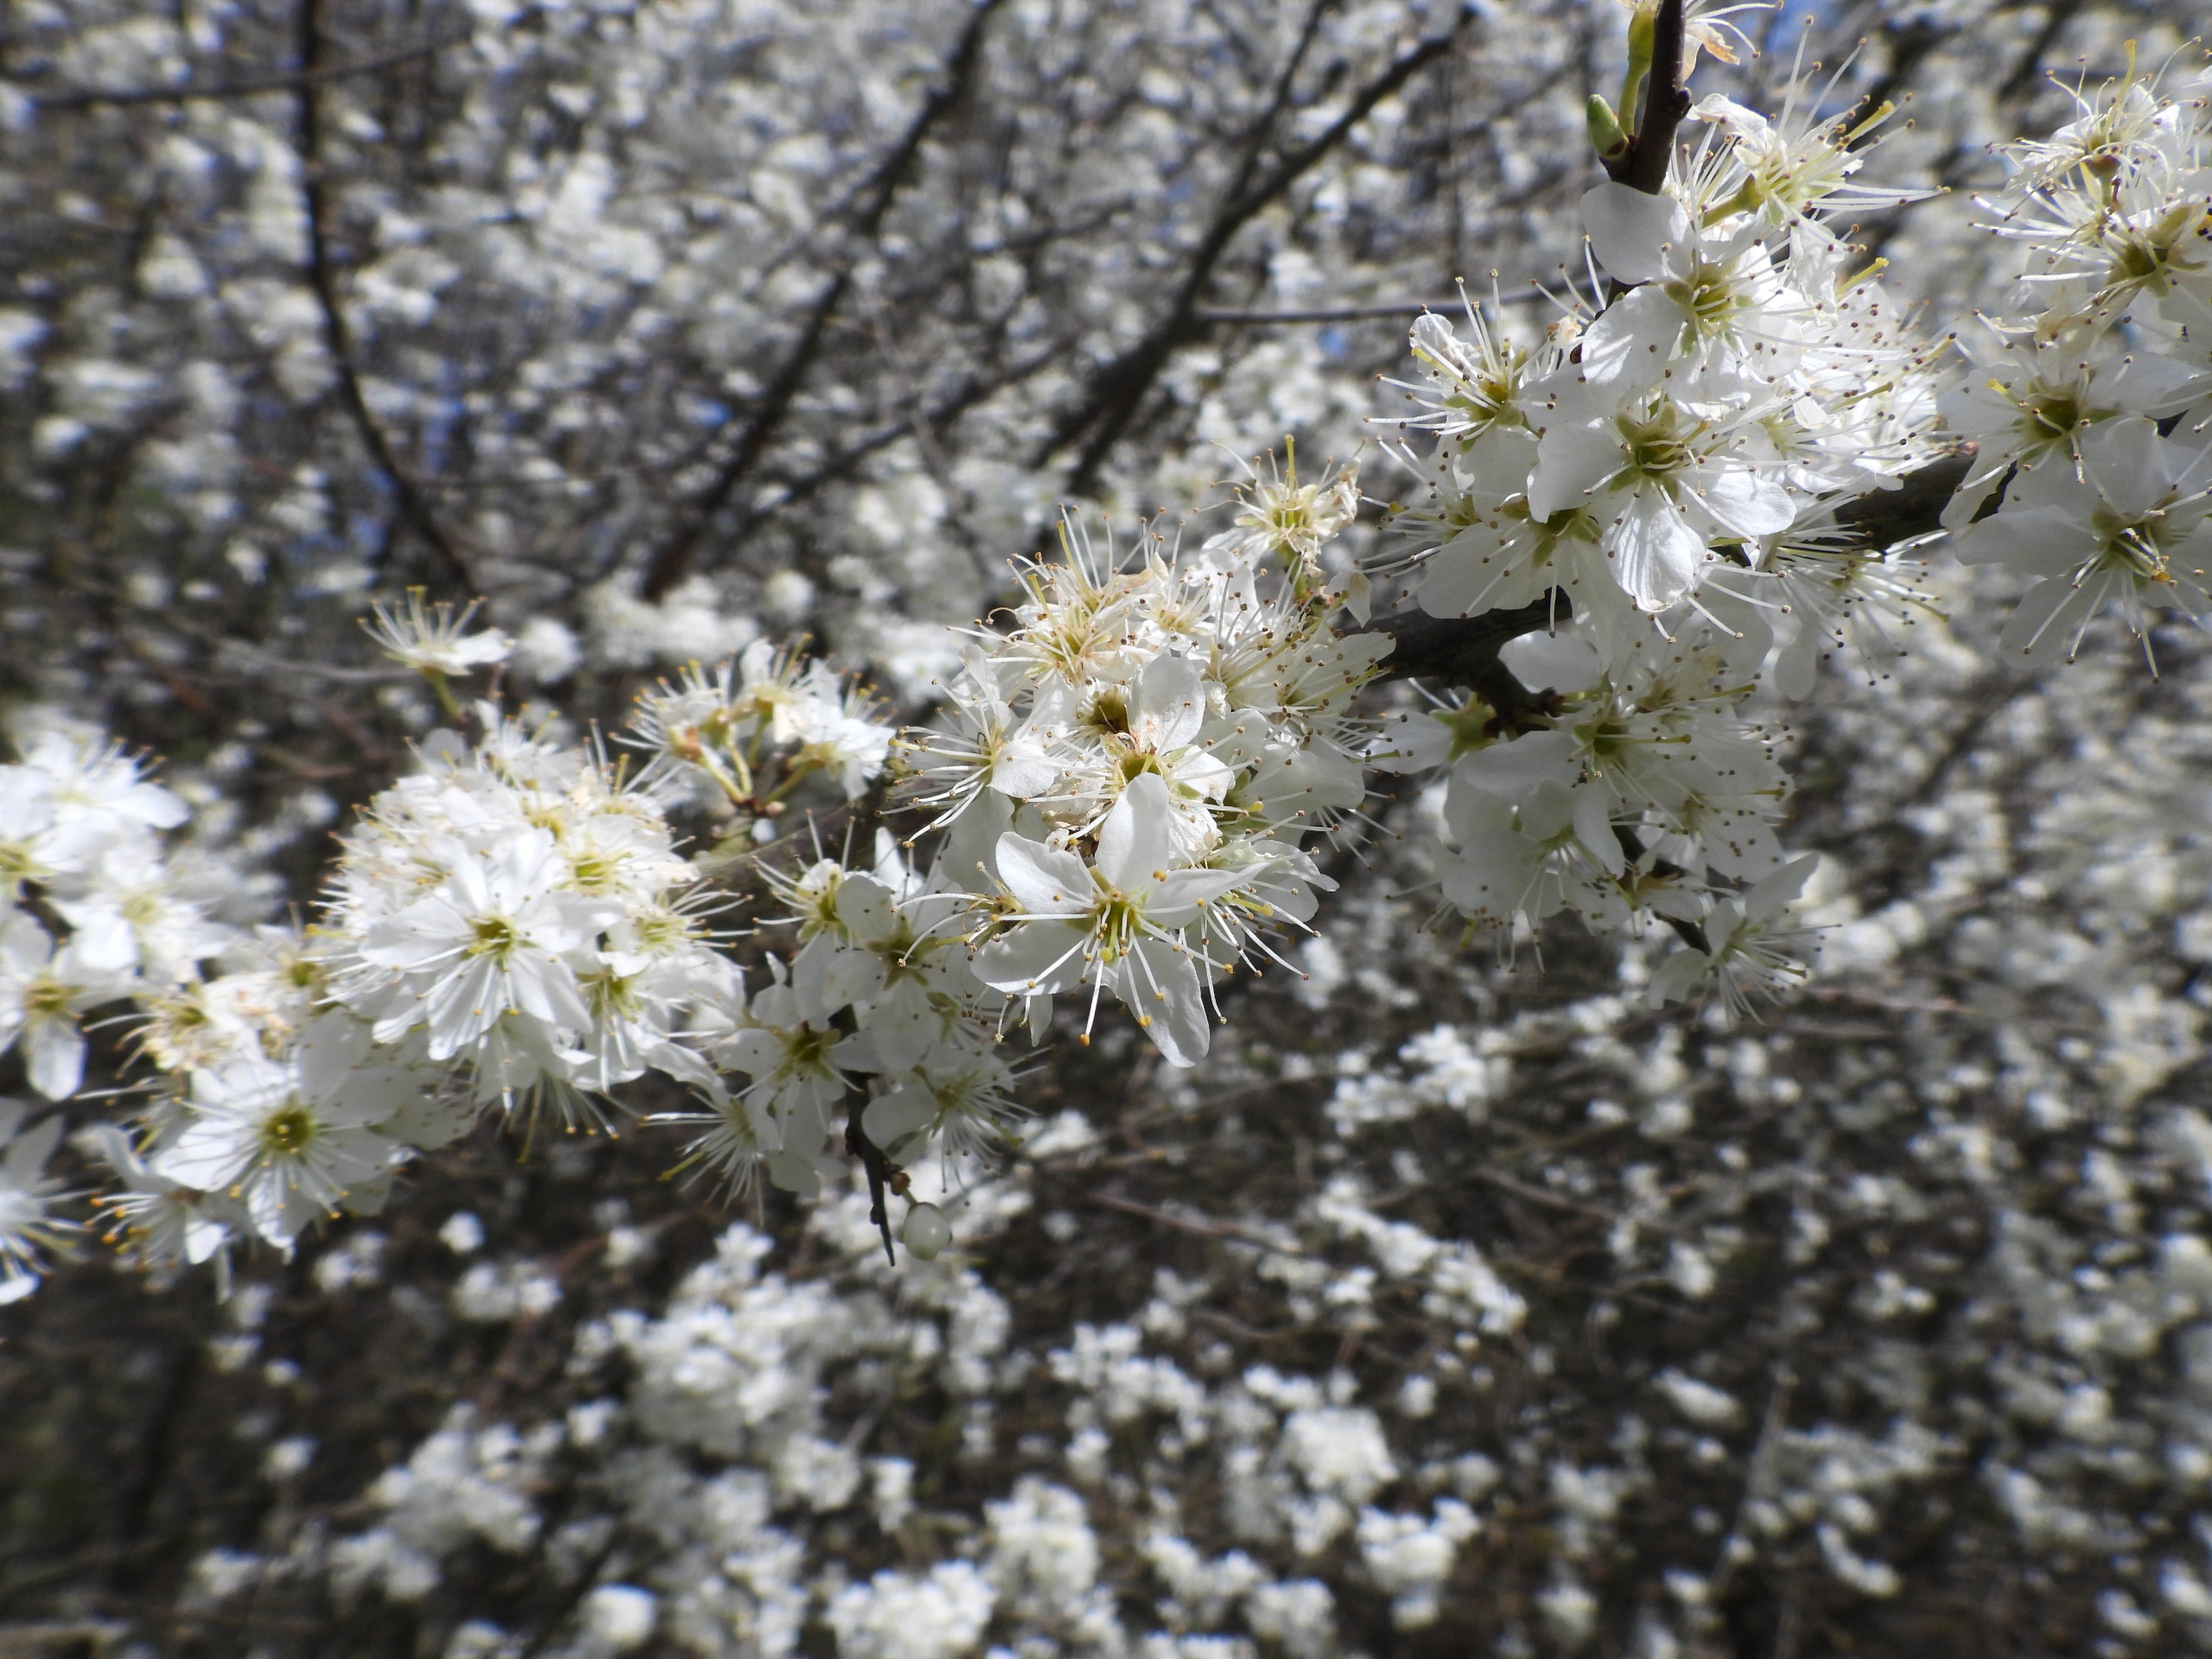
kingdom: Plantae
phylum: Tracheophyta
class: Magnoliopsida
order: Rosales
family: Rosaceae
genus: Prunus
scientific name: Prunus spinosa
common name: Slåen
